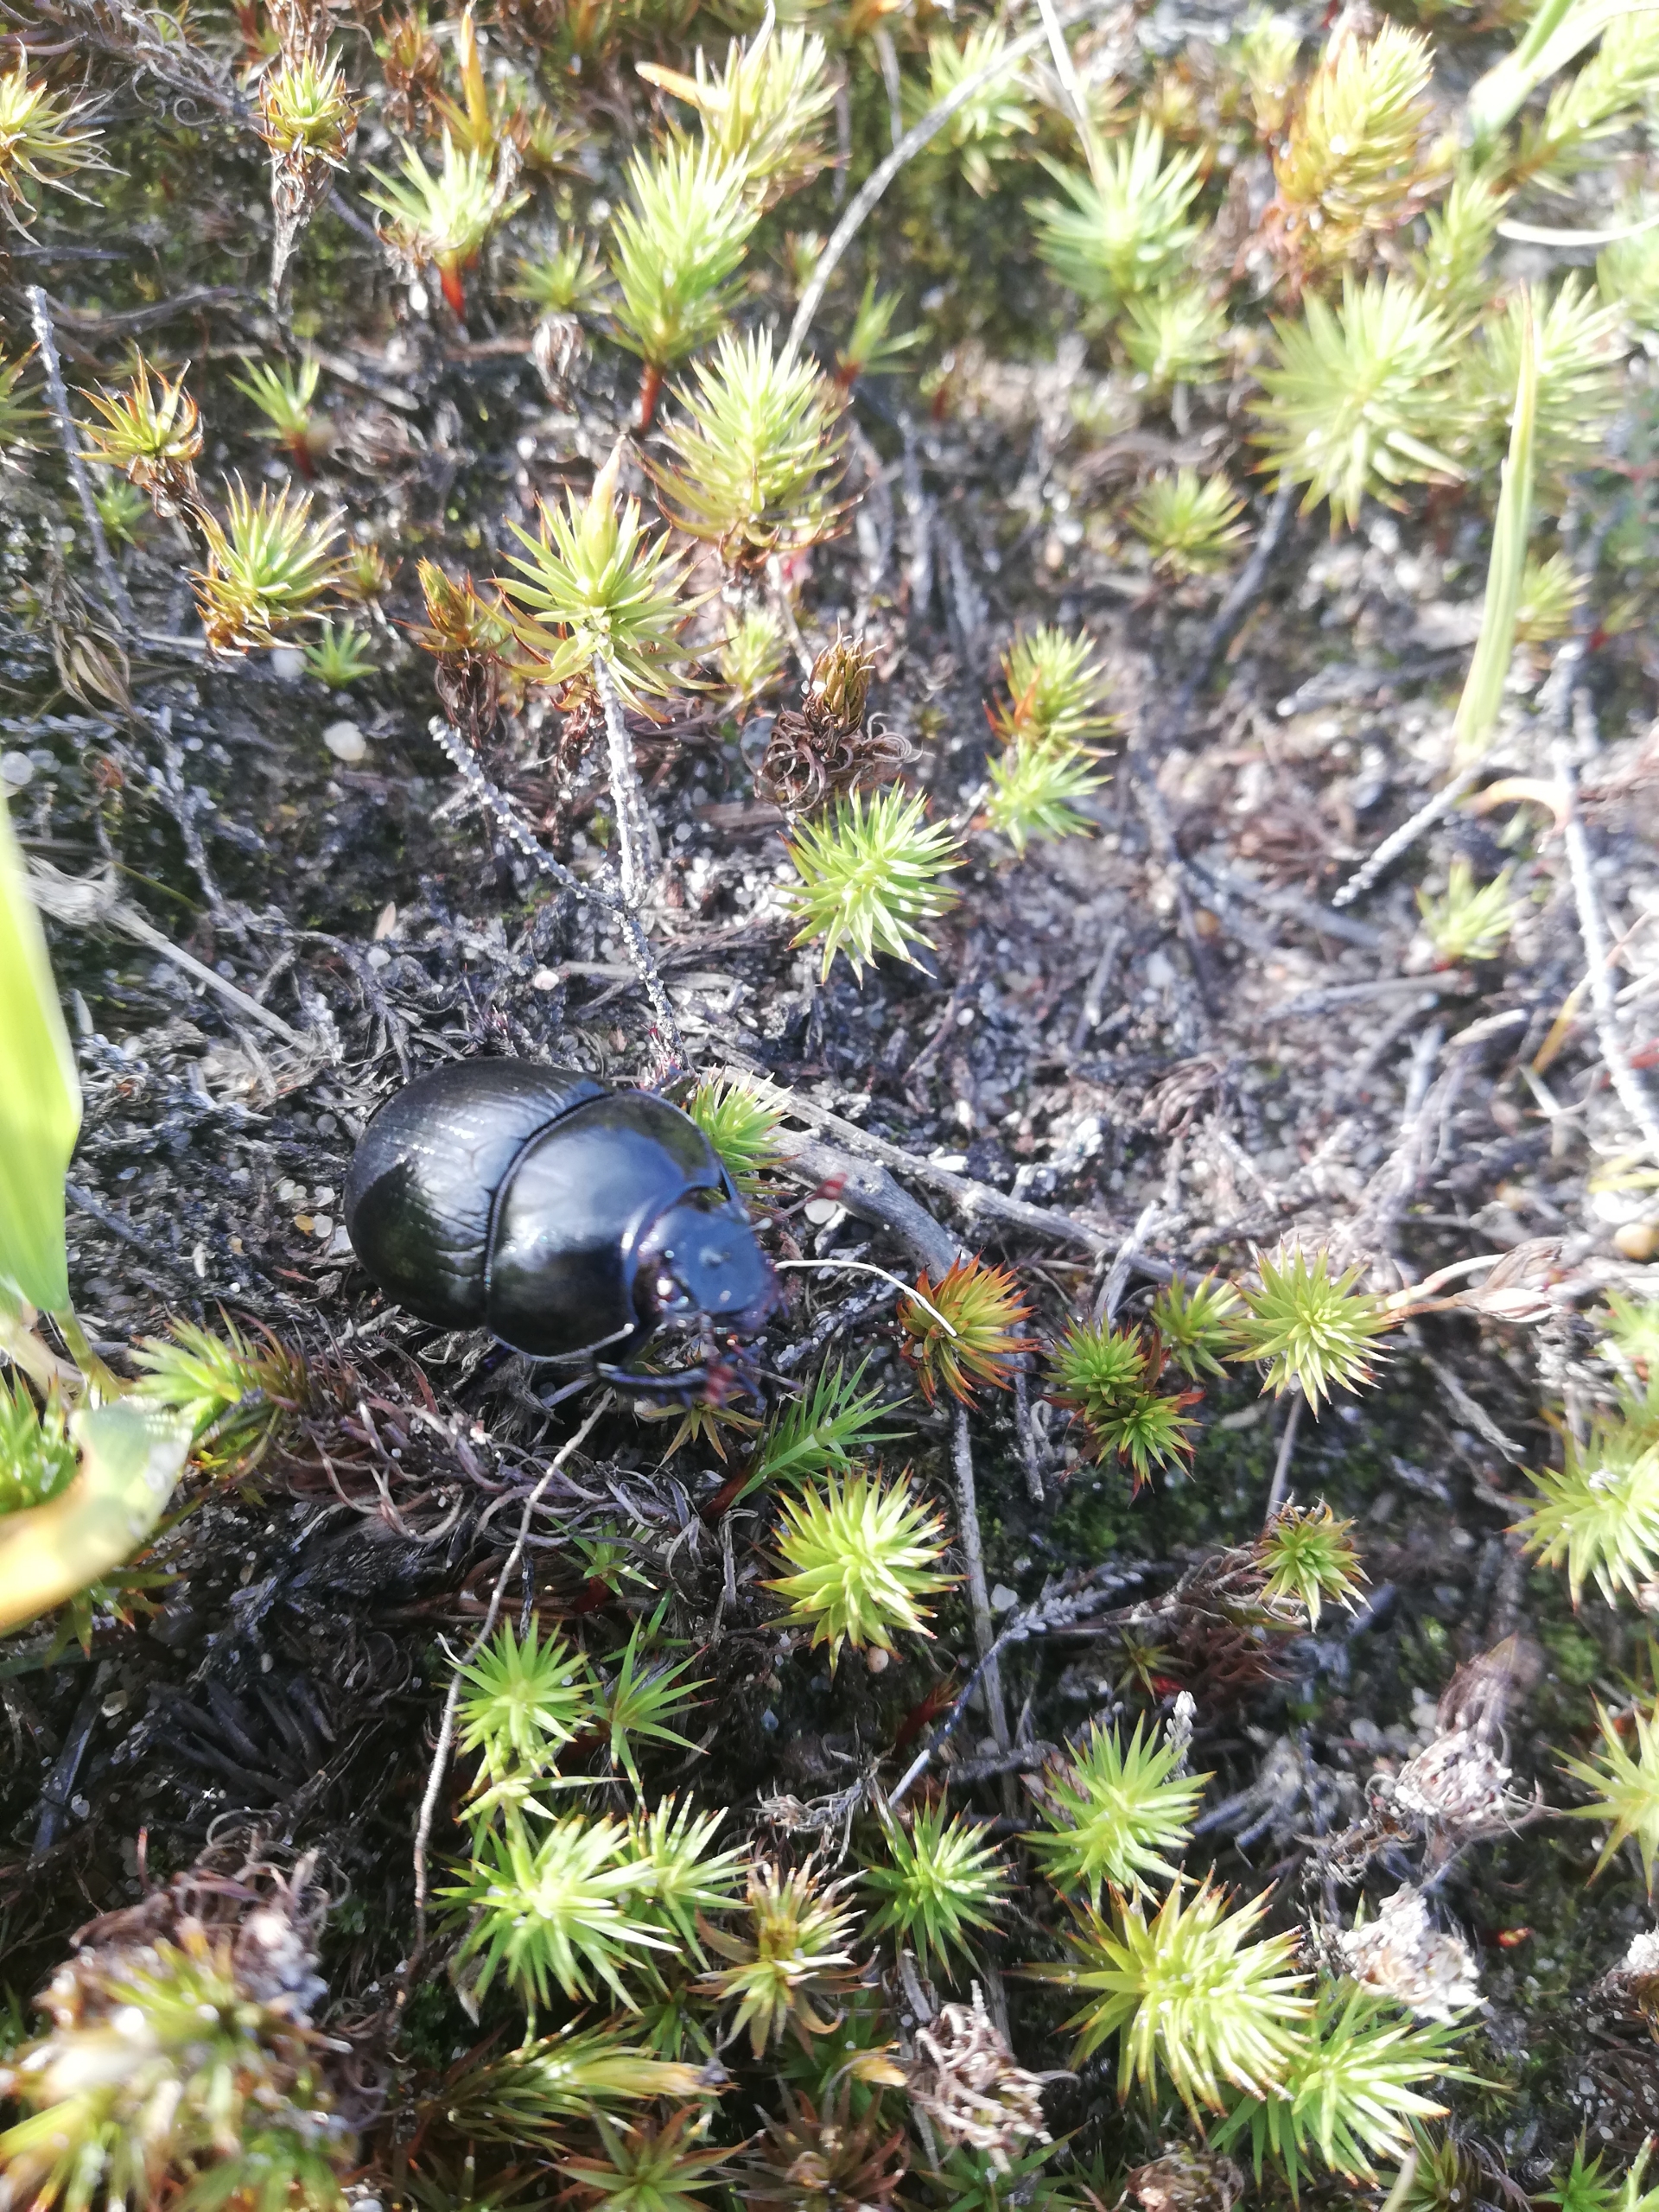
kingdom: Animalia
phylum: Arthropoda
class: Insecta
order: Coleoptera
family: Geotrupidae
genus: Anoplotrupes
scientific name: Anoplotrupes stercorosus
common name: Skovskarnbasse
